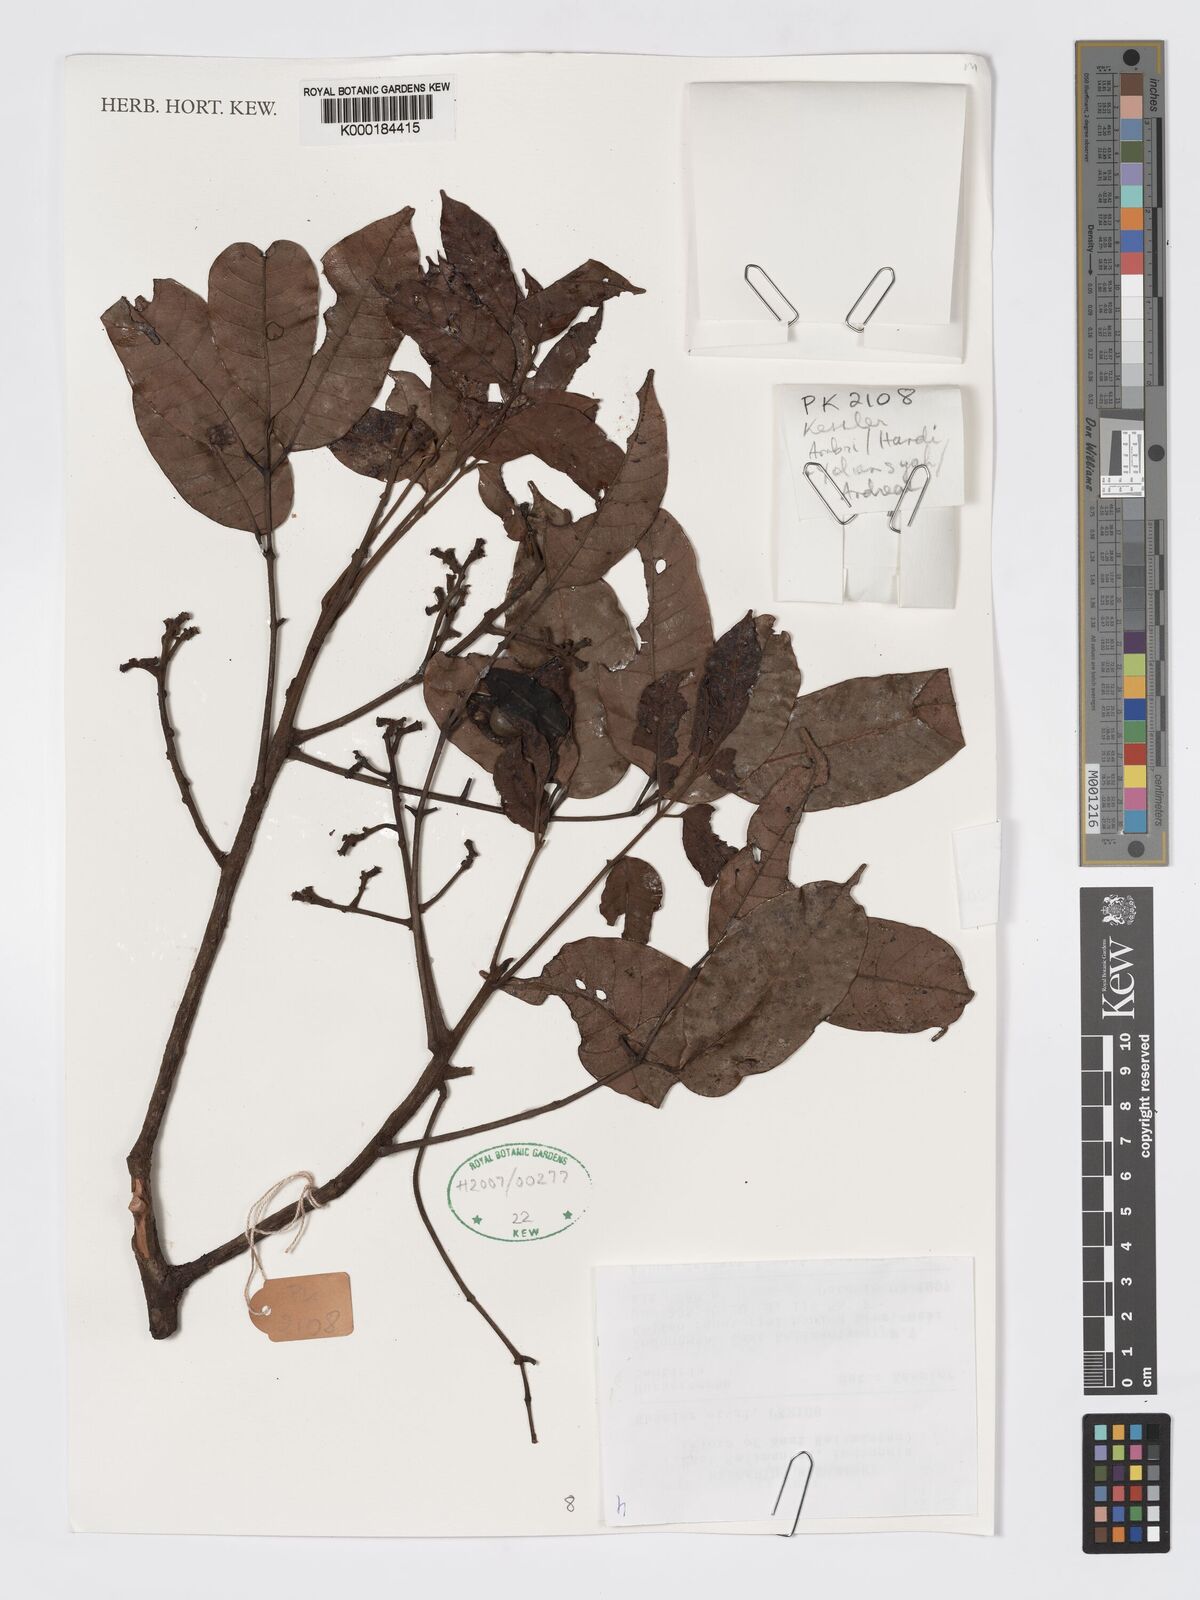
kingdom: Plantae
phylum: Tracheophyta
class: Magnoliopsida
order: Sapindales
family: Burseraceae
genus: Santiria
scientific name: Santiria laevigata
